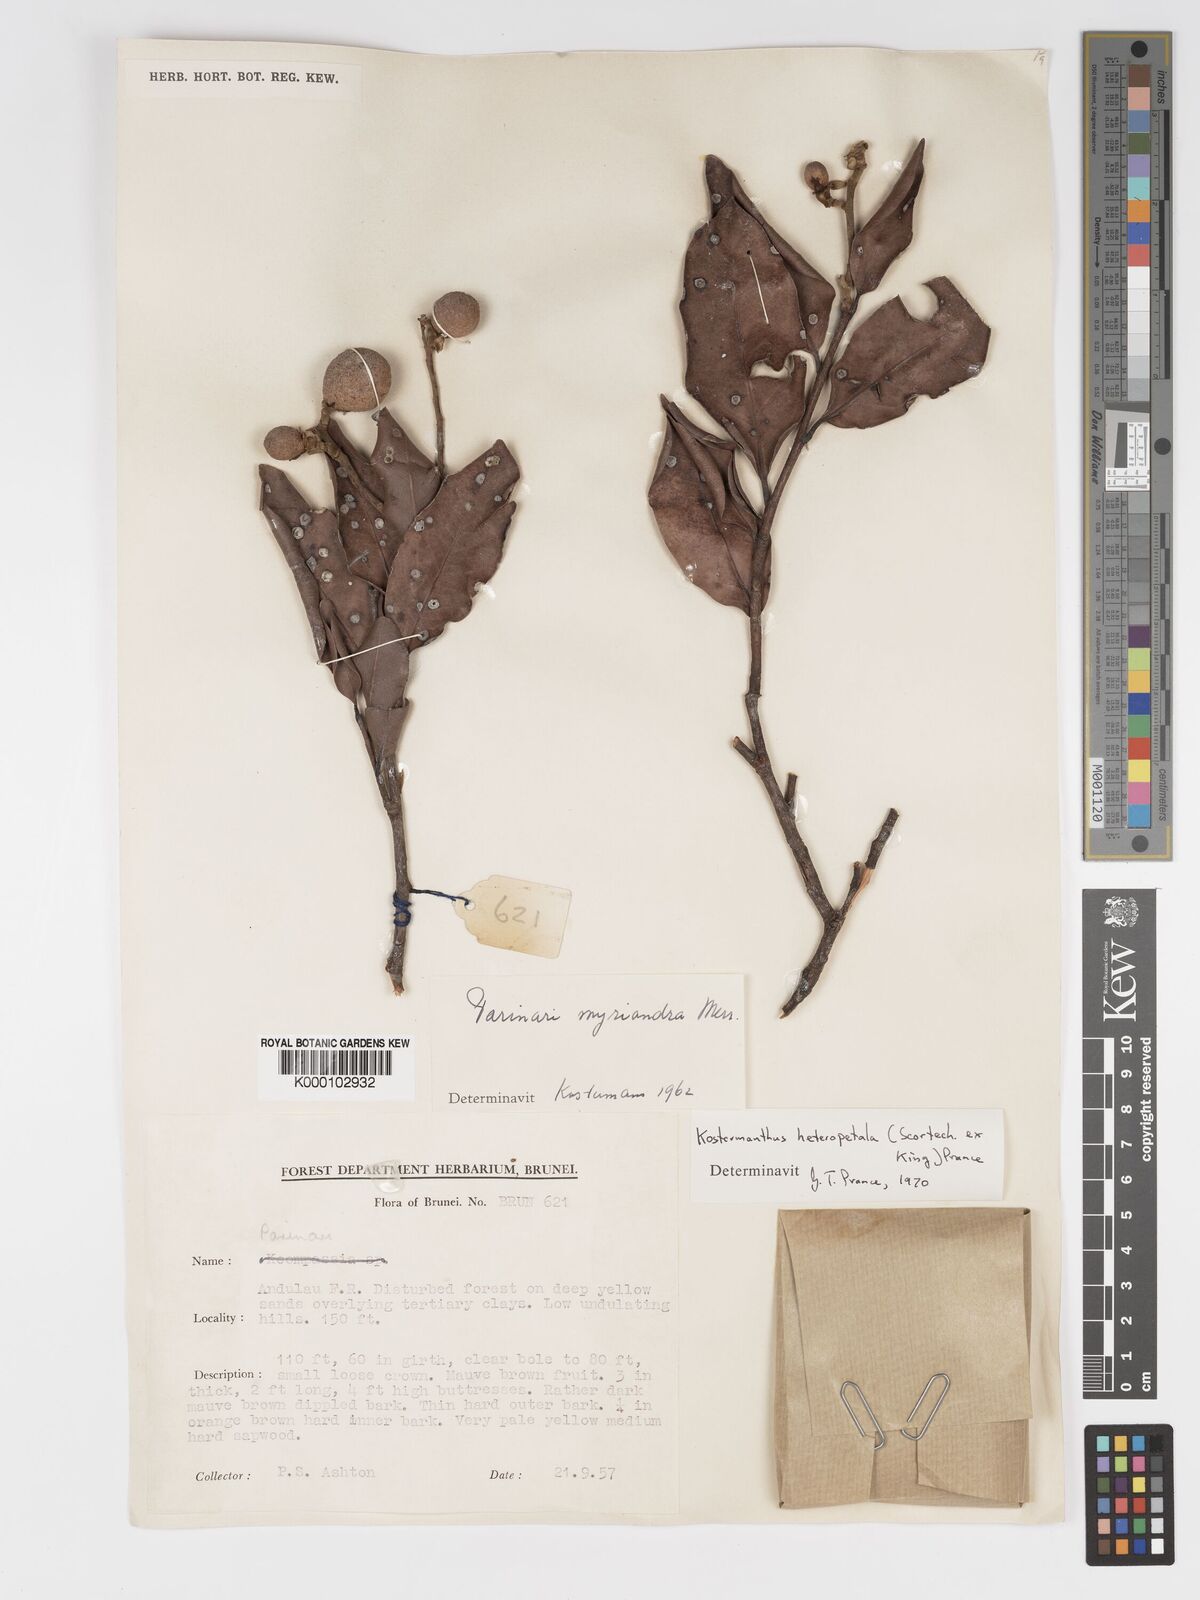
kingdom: Plantae
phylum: Tracheophyta
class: Magnoliopsida
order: Malpighiales
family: Chrysobalanaceae
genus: Kostermanthus
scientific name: Kostermanthus heteropetalus
